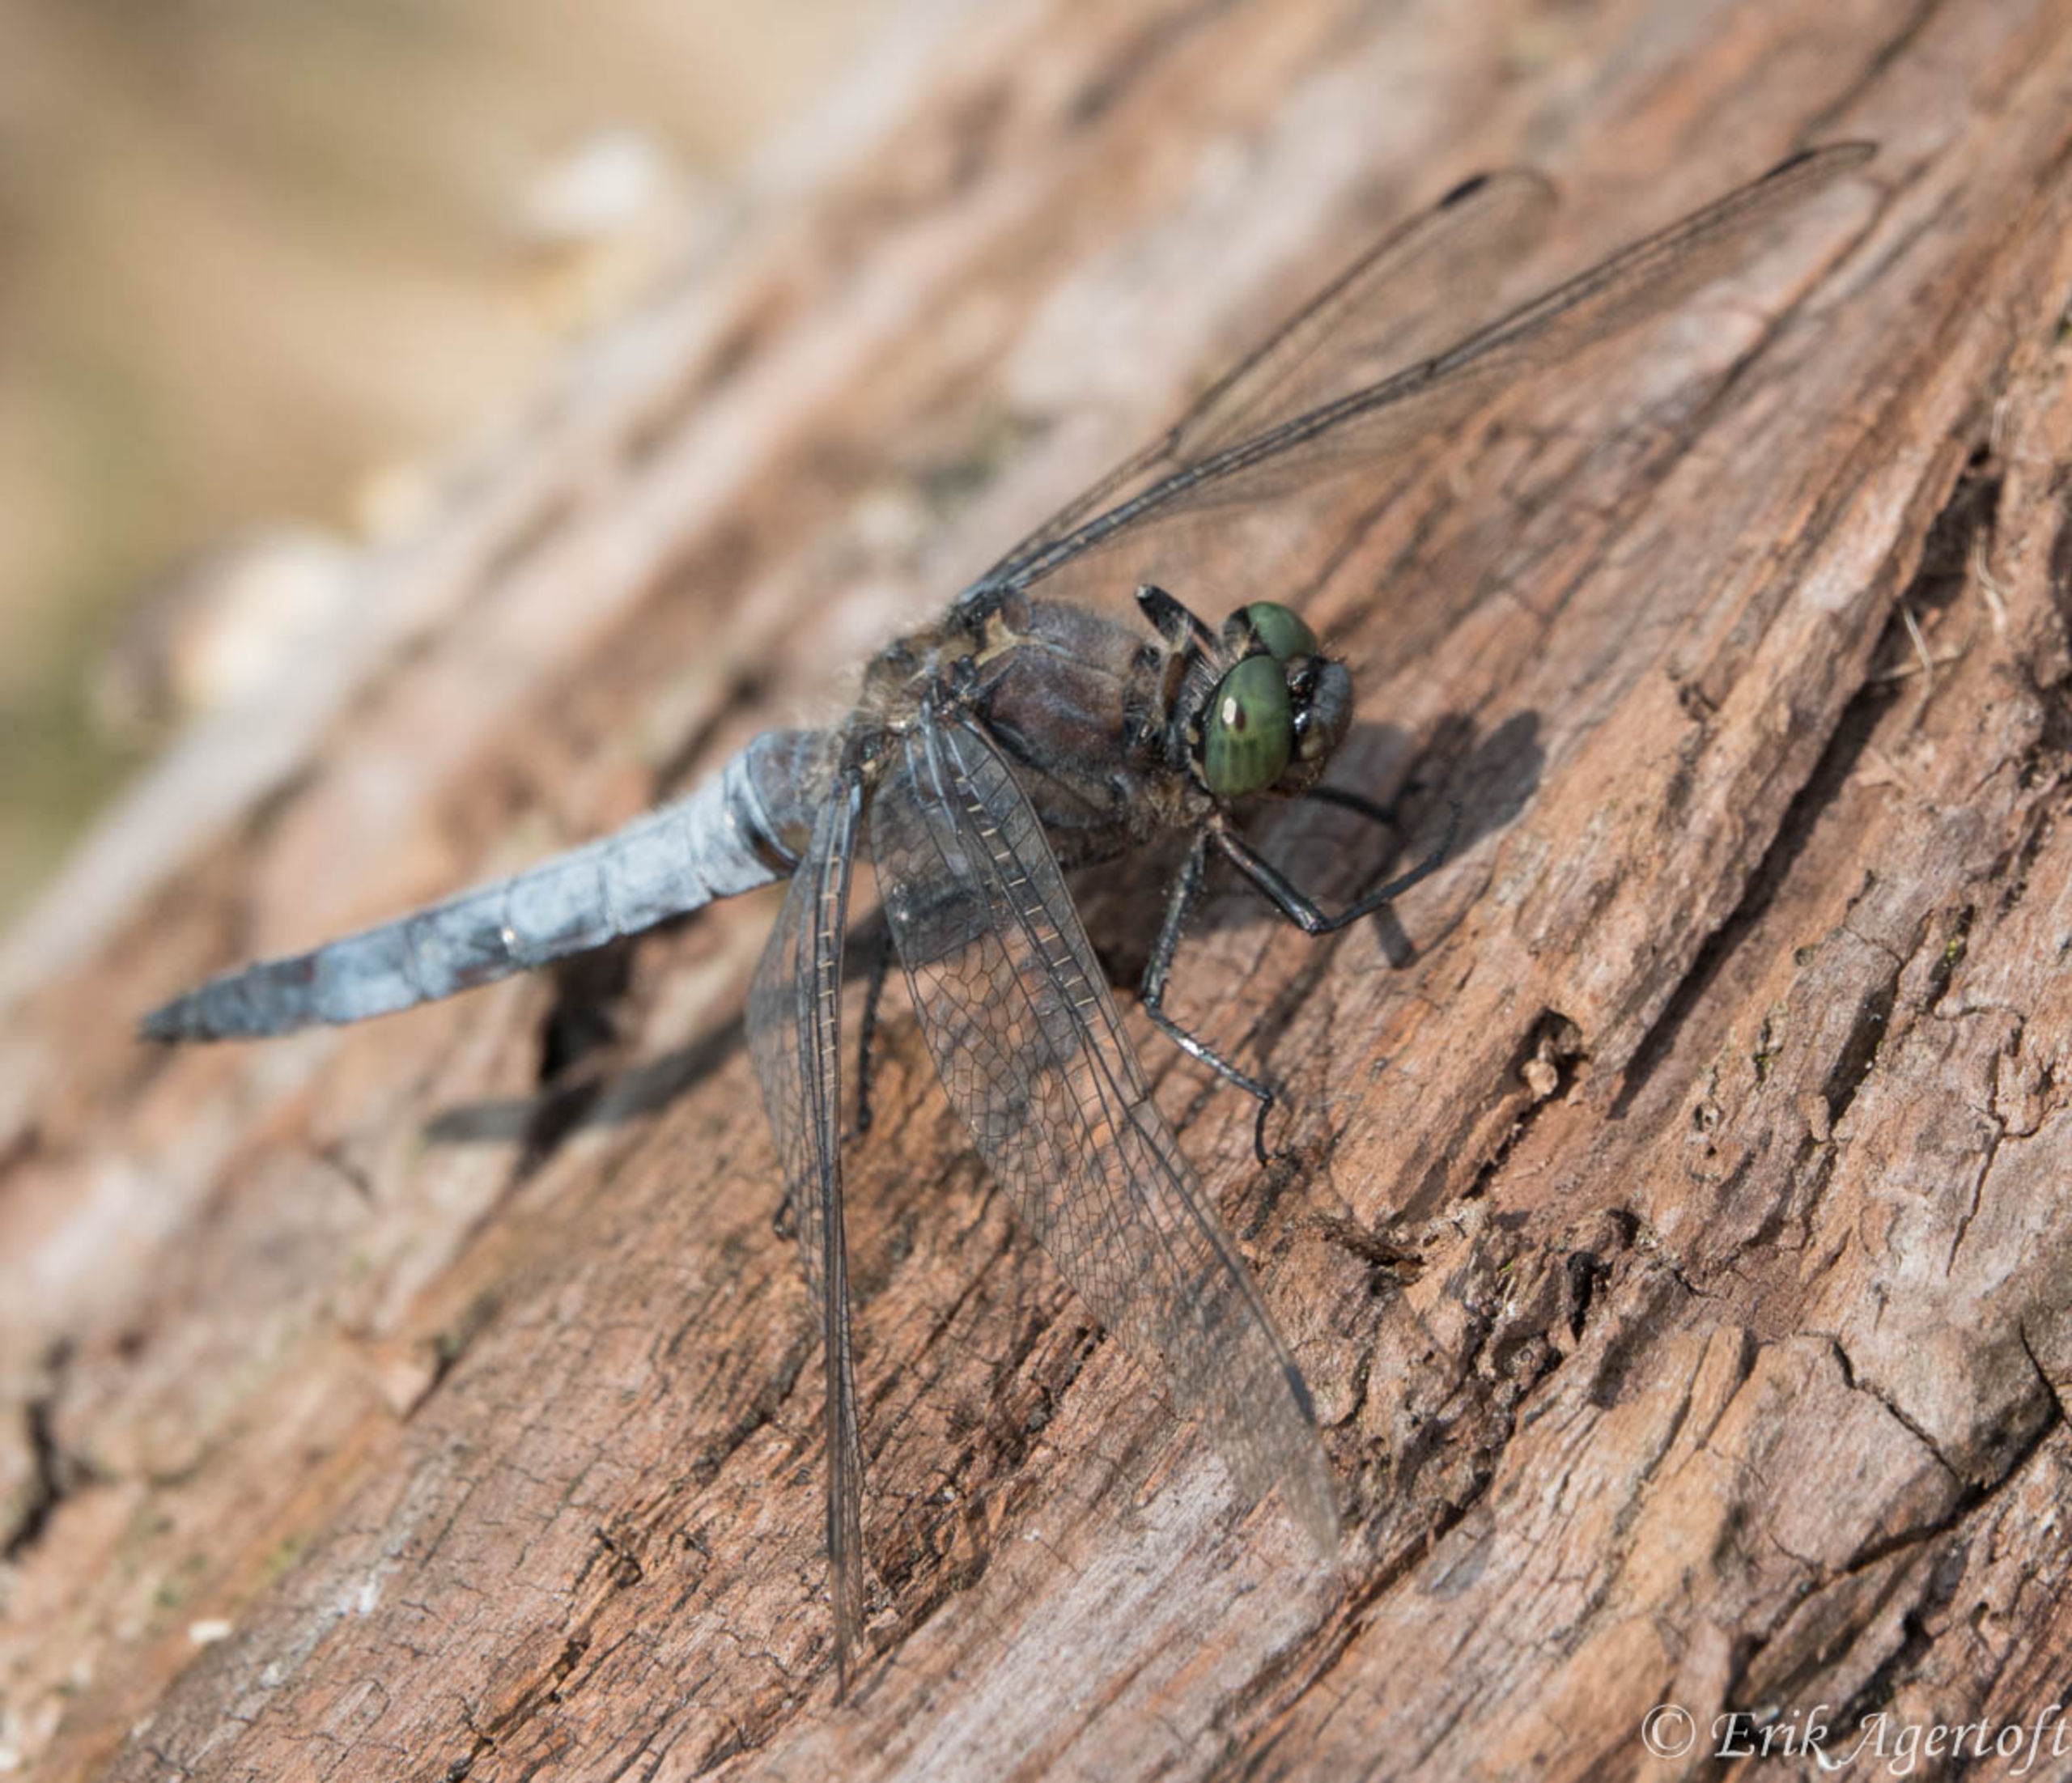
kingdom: Animalia
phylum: Arthropoda
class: Insecta
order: Odonata
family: Libellulidae
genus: Orthetrum
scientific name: Orthetrum cancellatum
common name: Stor blåpil
